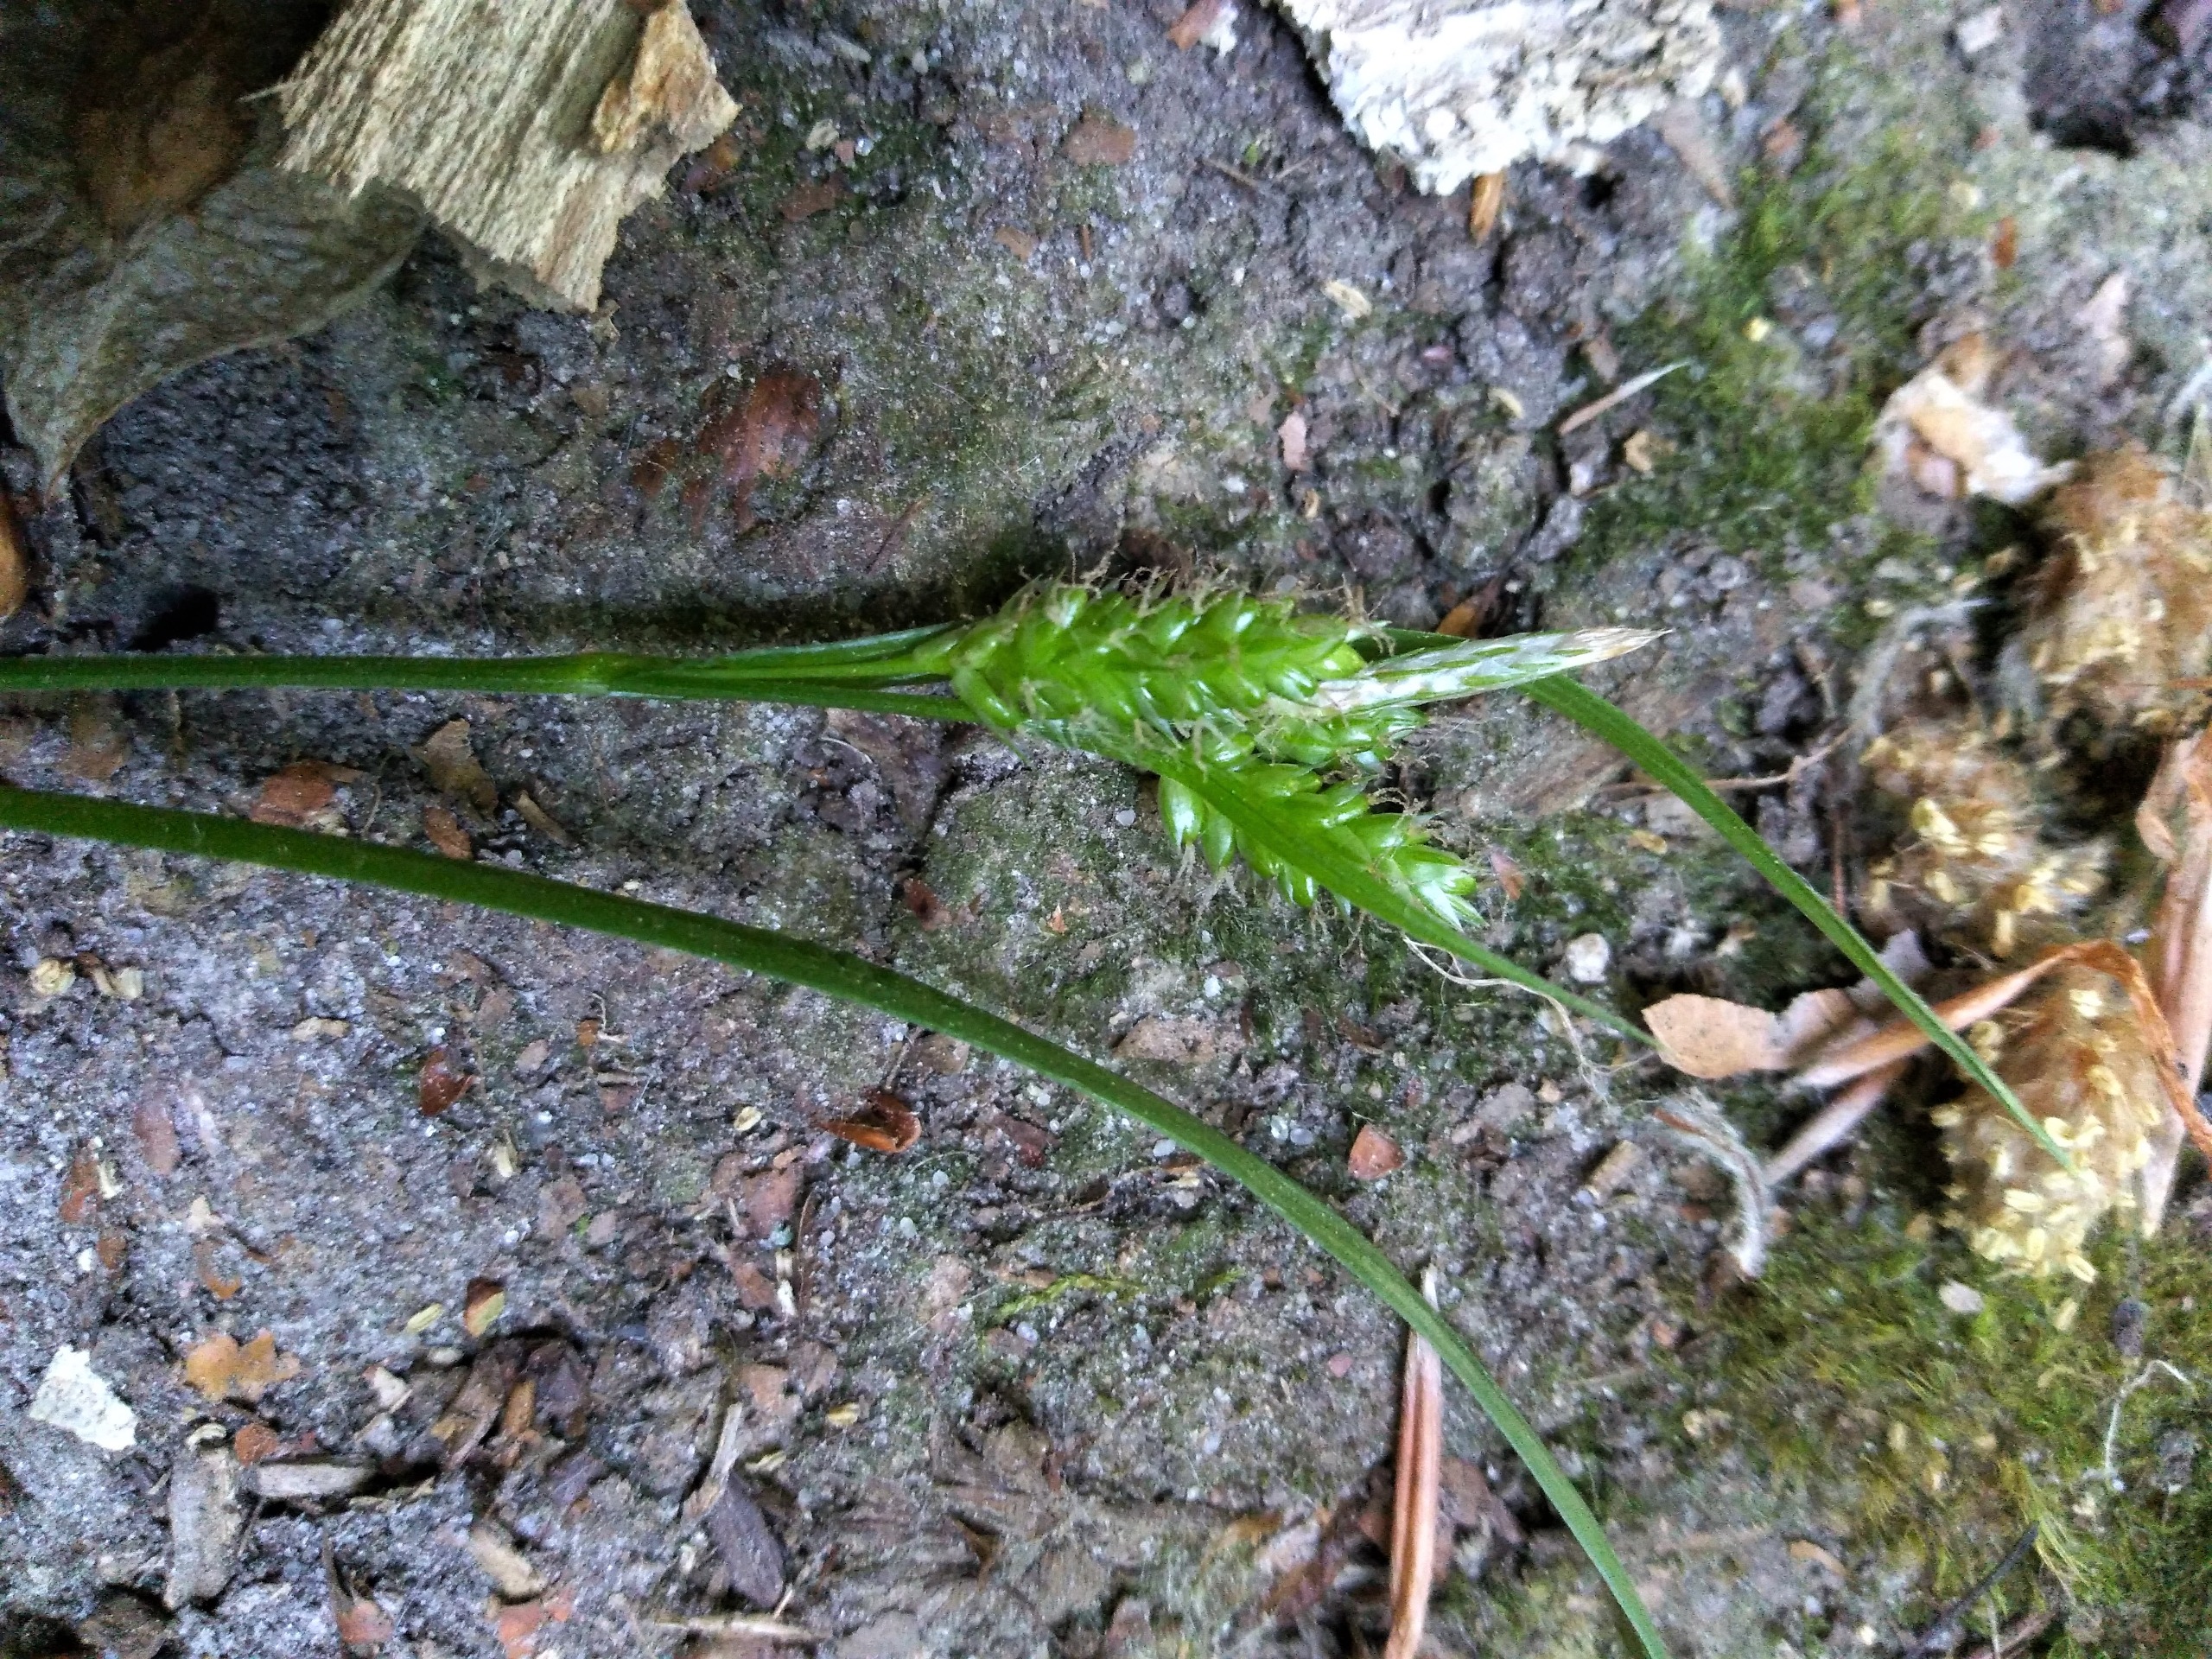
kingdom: Plantae
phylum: Tracheophyta
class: Liliopsida
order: Poales
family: Cyperaceae
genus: Carex
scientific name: Carex pallescens
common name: Bleg star
